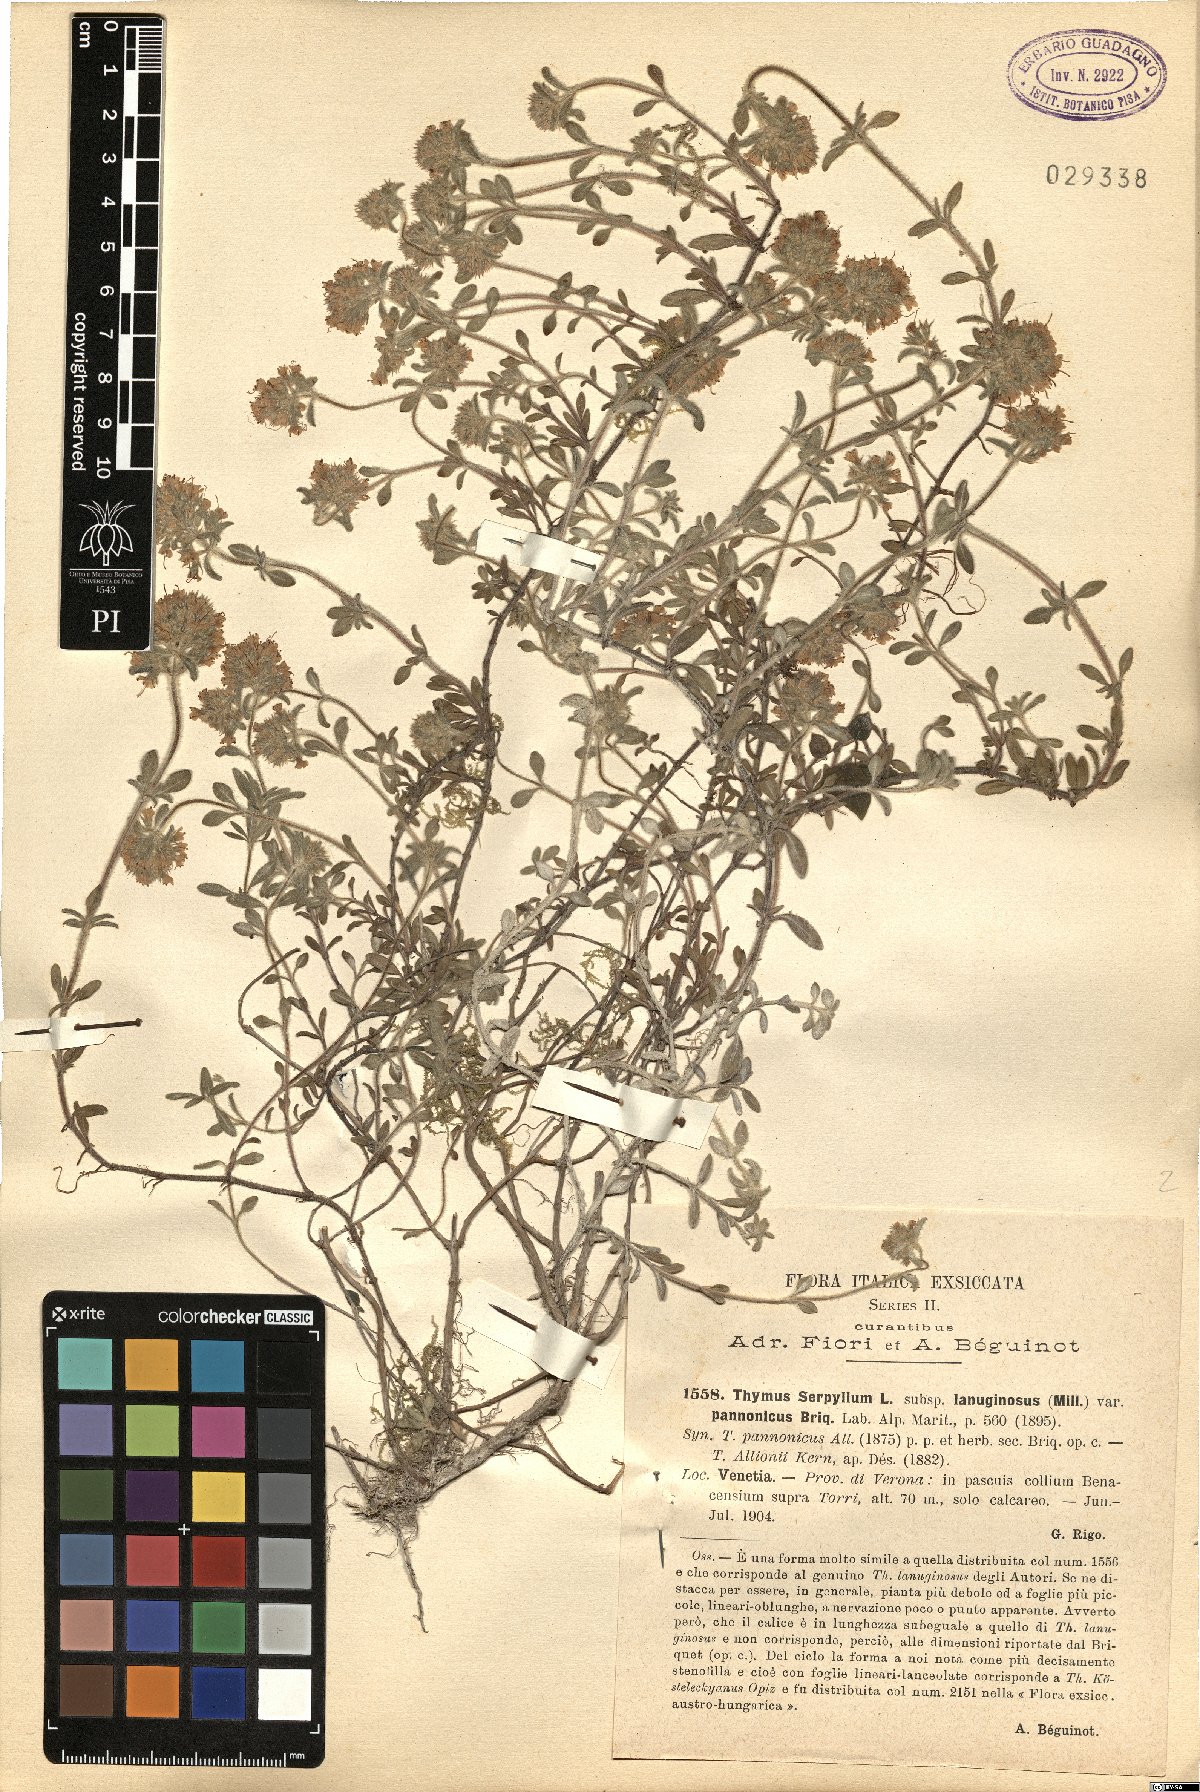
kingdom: Plantae
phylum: Tracheophyta
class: Magnoliopsida
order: Lamiales
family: Lamiaceae
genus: Thymus
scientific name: Thymus pannonicus
